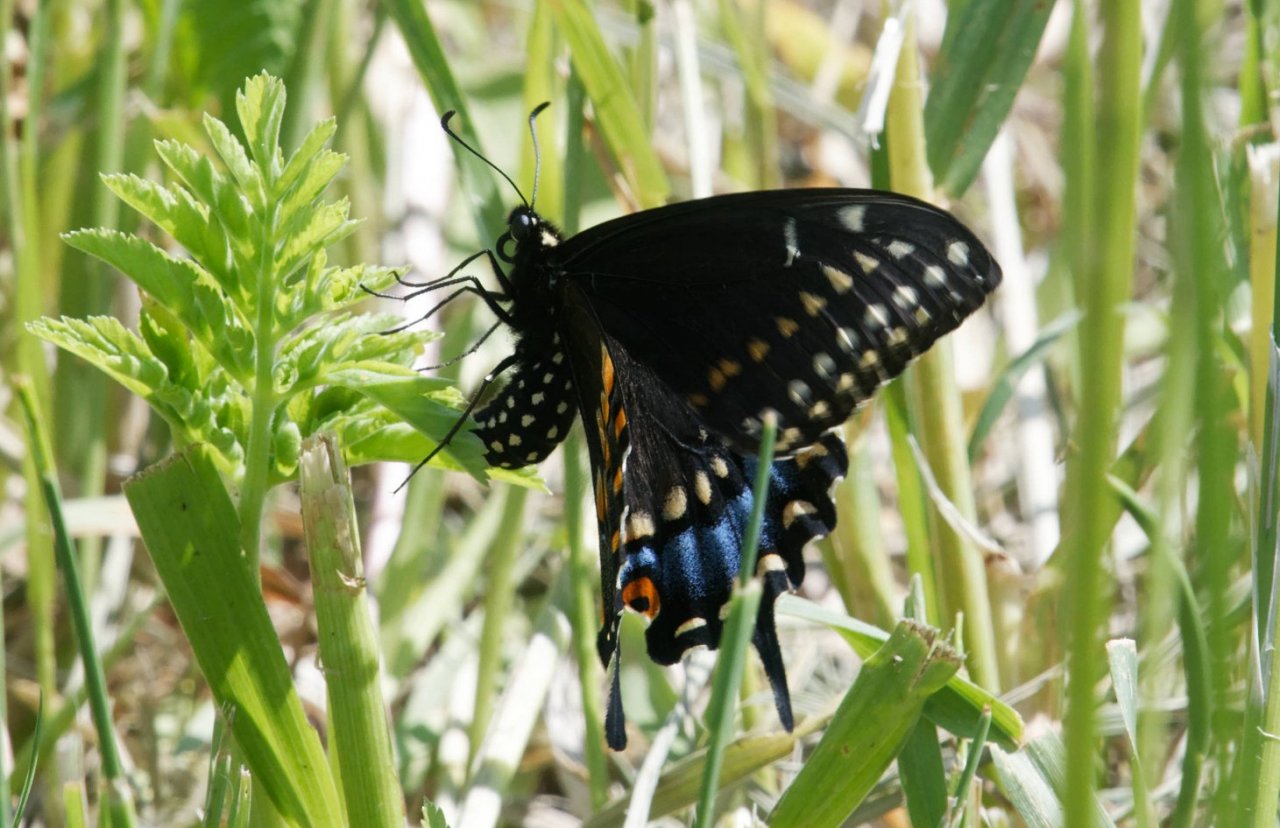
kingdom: Animalia
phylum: Arthropoda
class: Insecta
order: Lepidoptera
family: Papilionidae
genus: Papilio
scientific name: Papilio polyxenes
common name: Black Swallowtail
